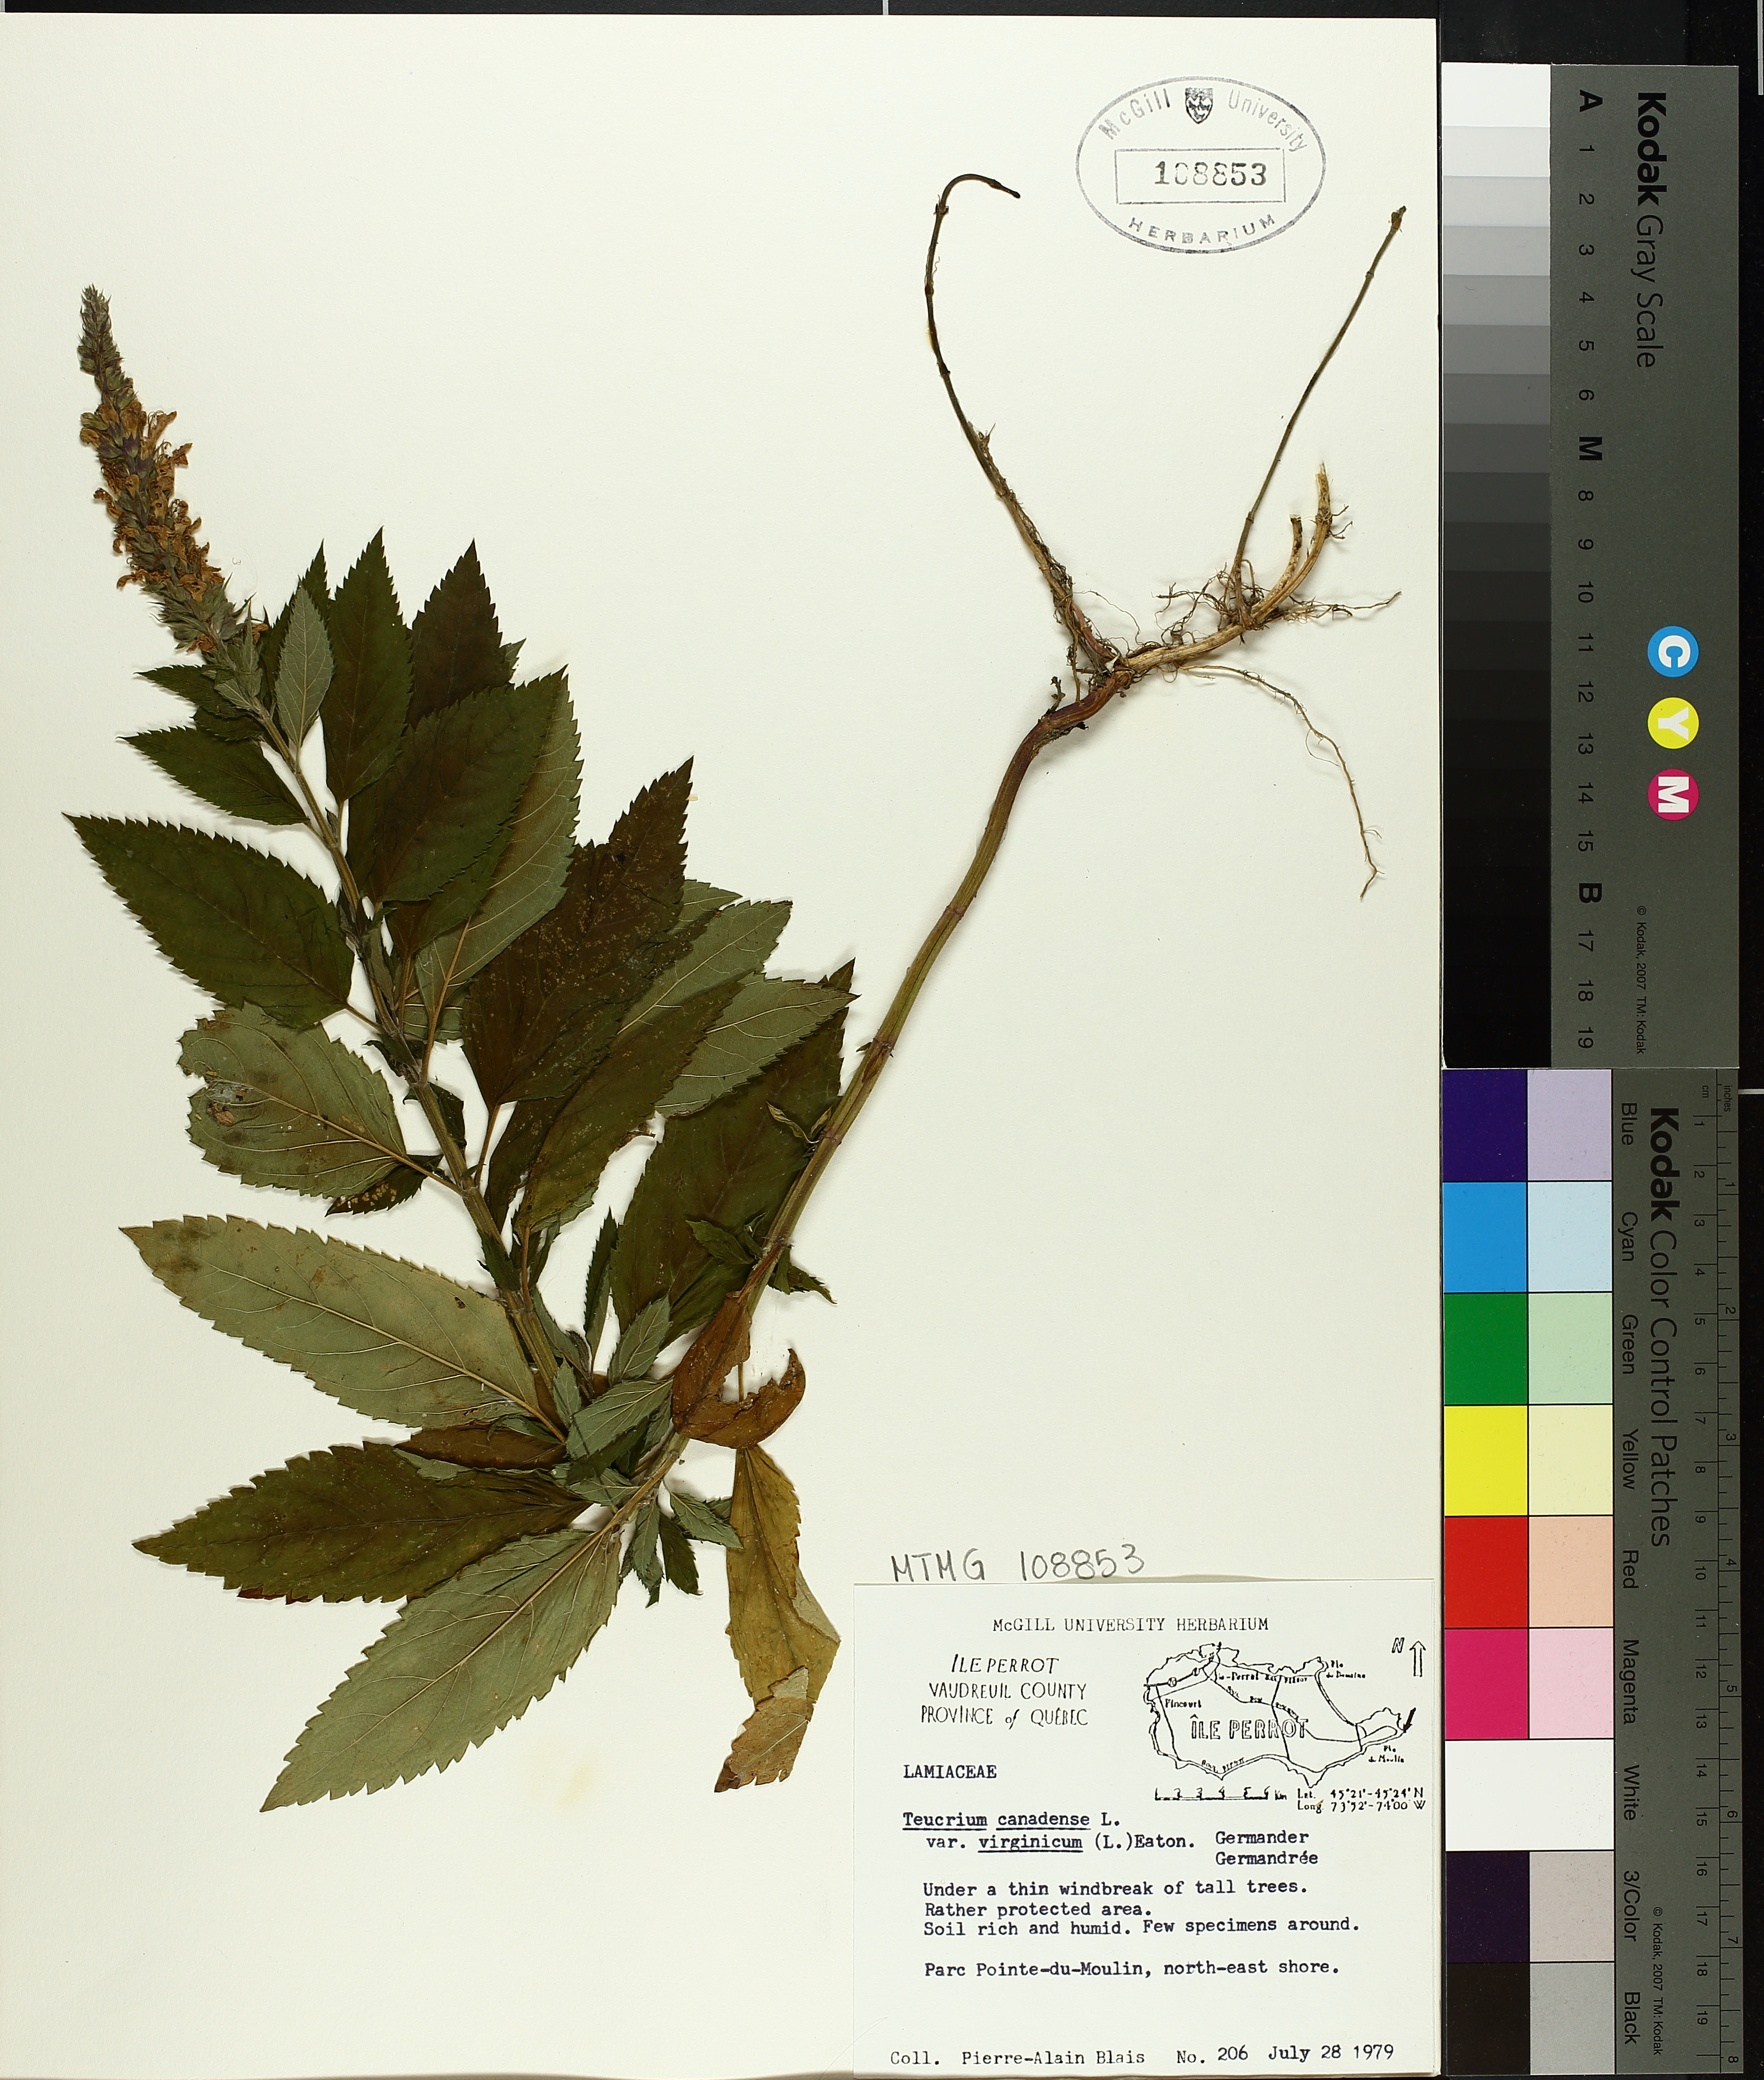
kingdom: Plantae
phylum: Tracheophyta
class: Magnoliopsida
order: Lamiales
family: Lamiaceae
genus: Teucrium
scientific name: Teucrium canadense
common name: American germander
